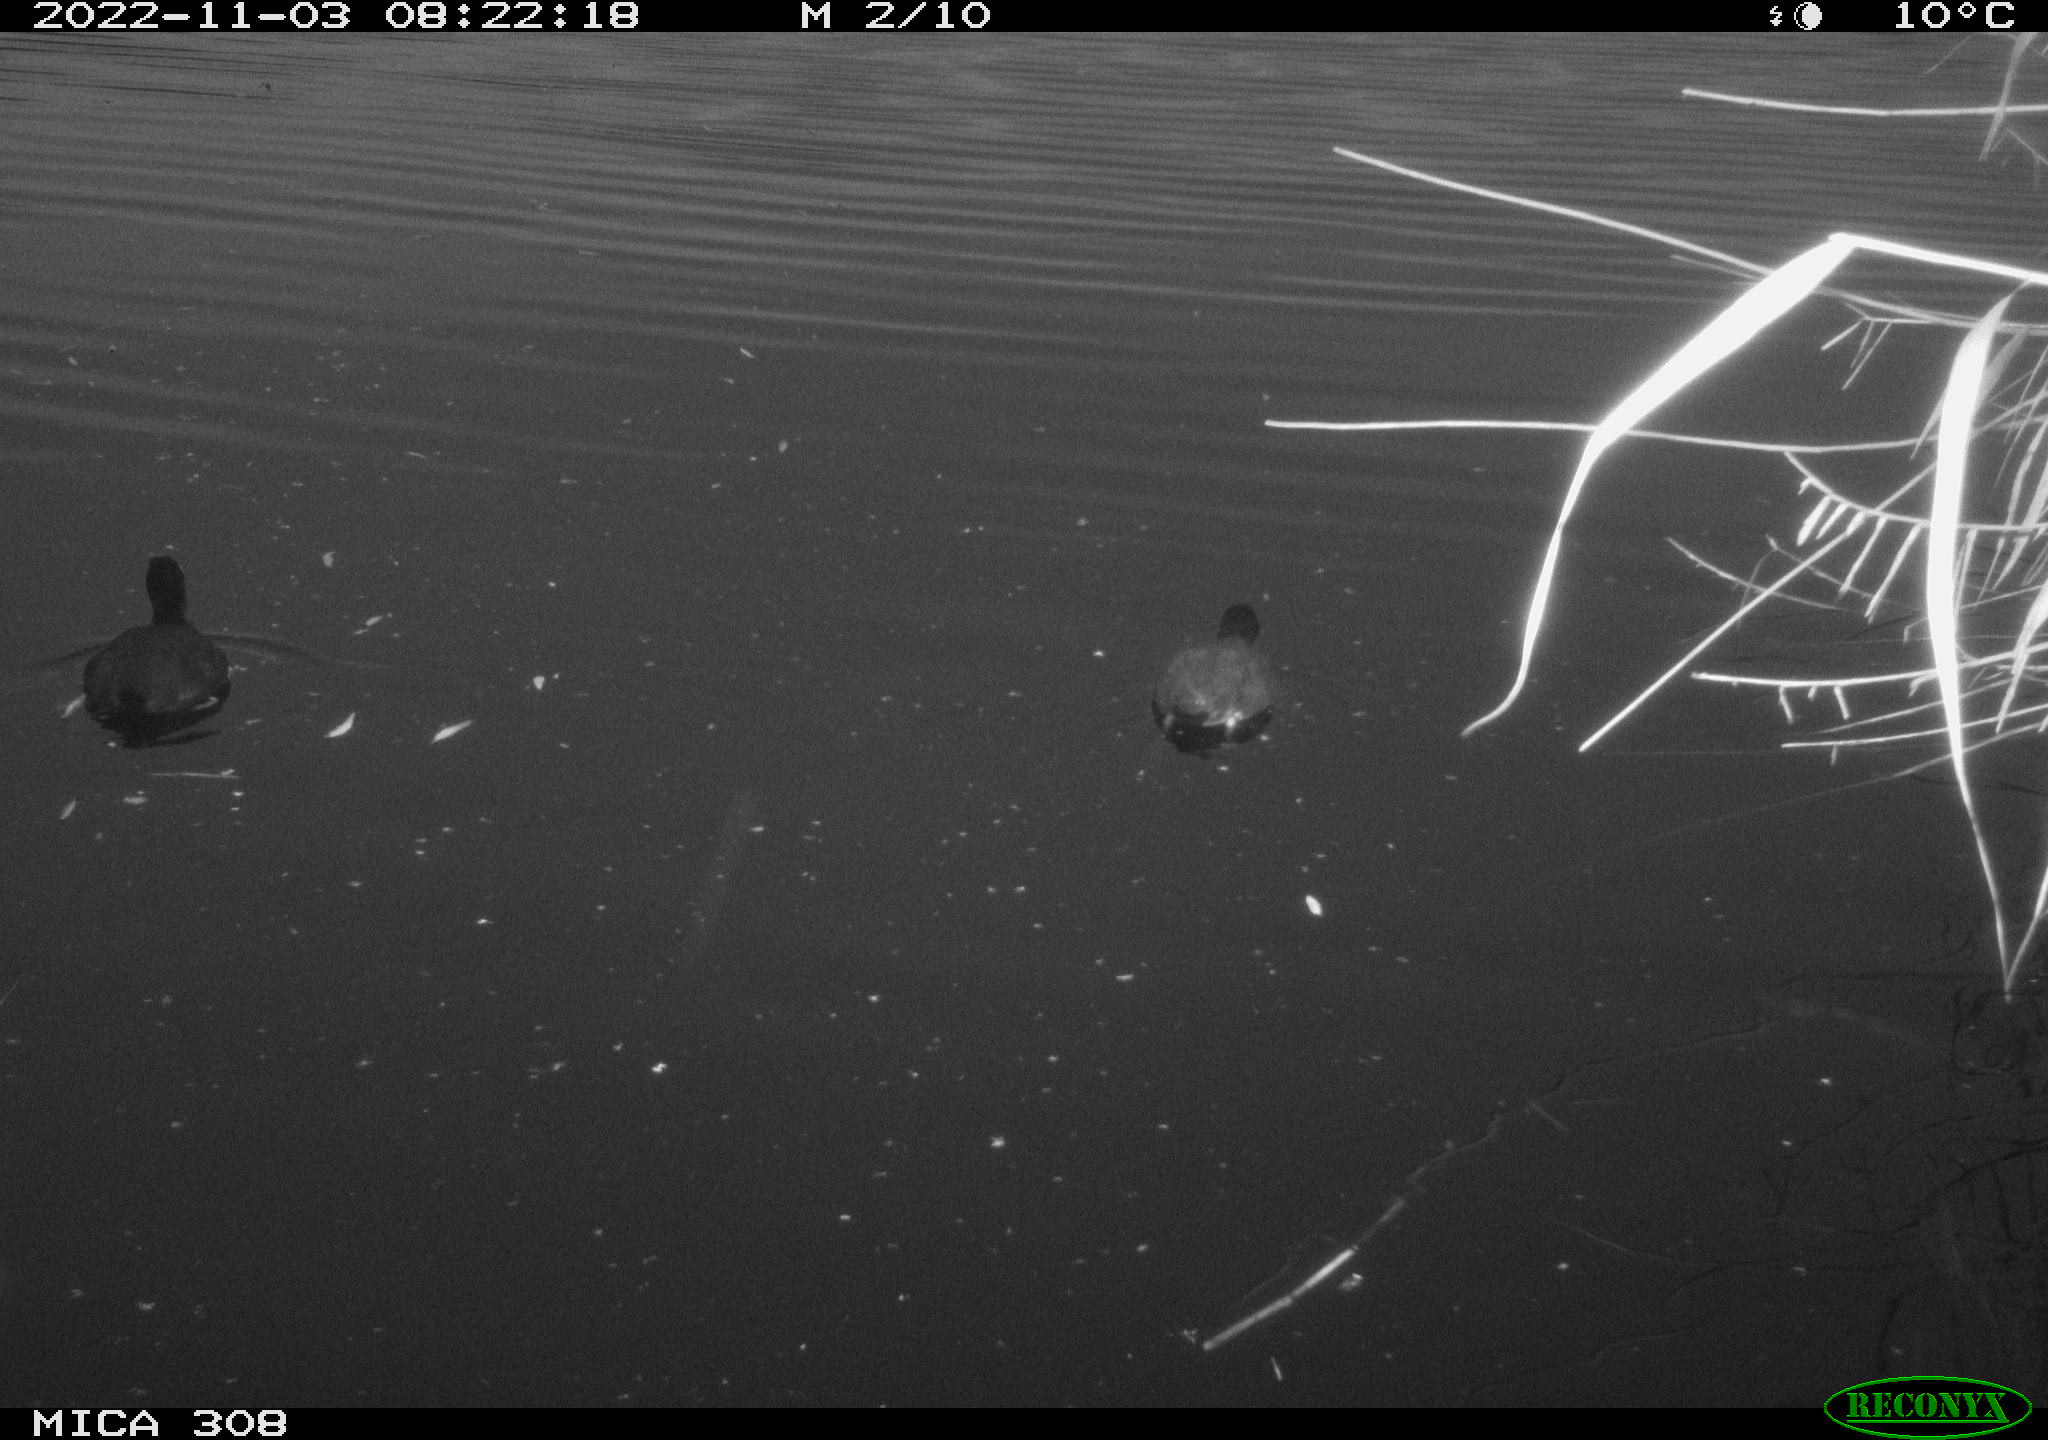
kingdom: Animalia
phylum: Chordata
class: Aves
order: Gruiformes
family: Rallidae
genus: Fulica
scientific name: Fulica atra
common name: Eurasian coot
